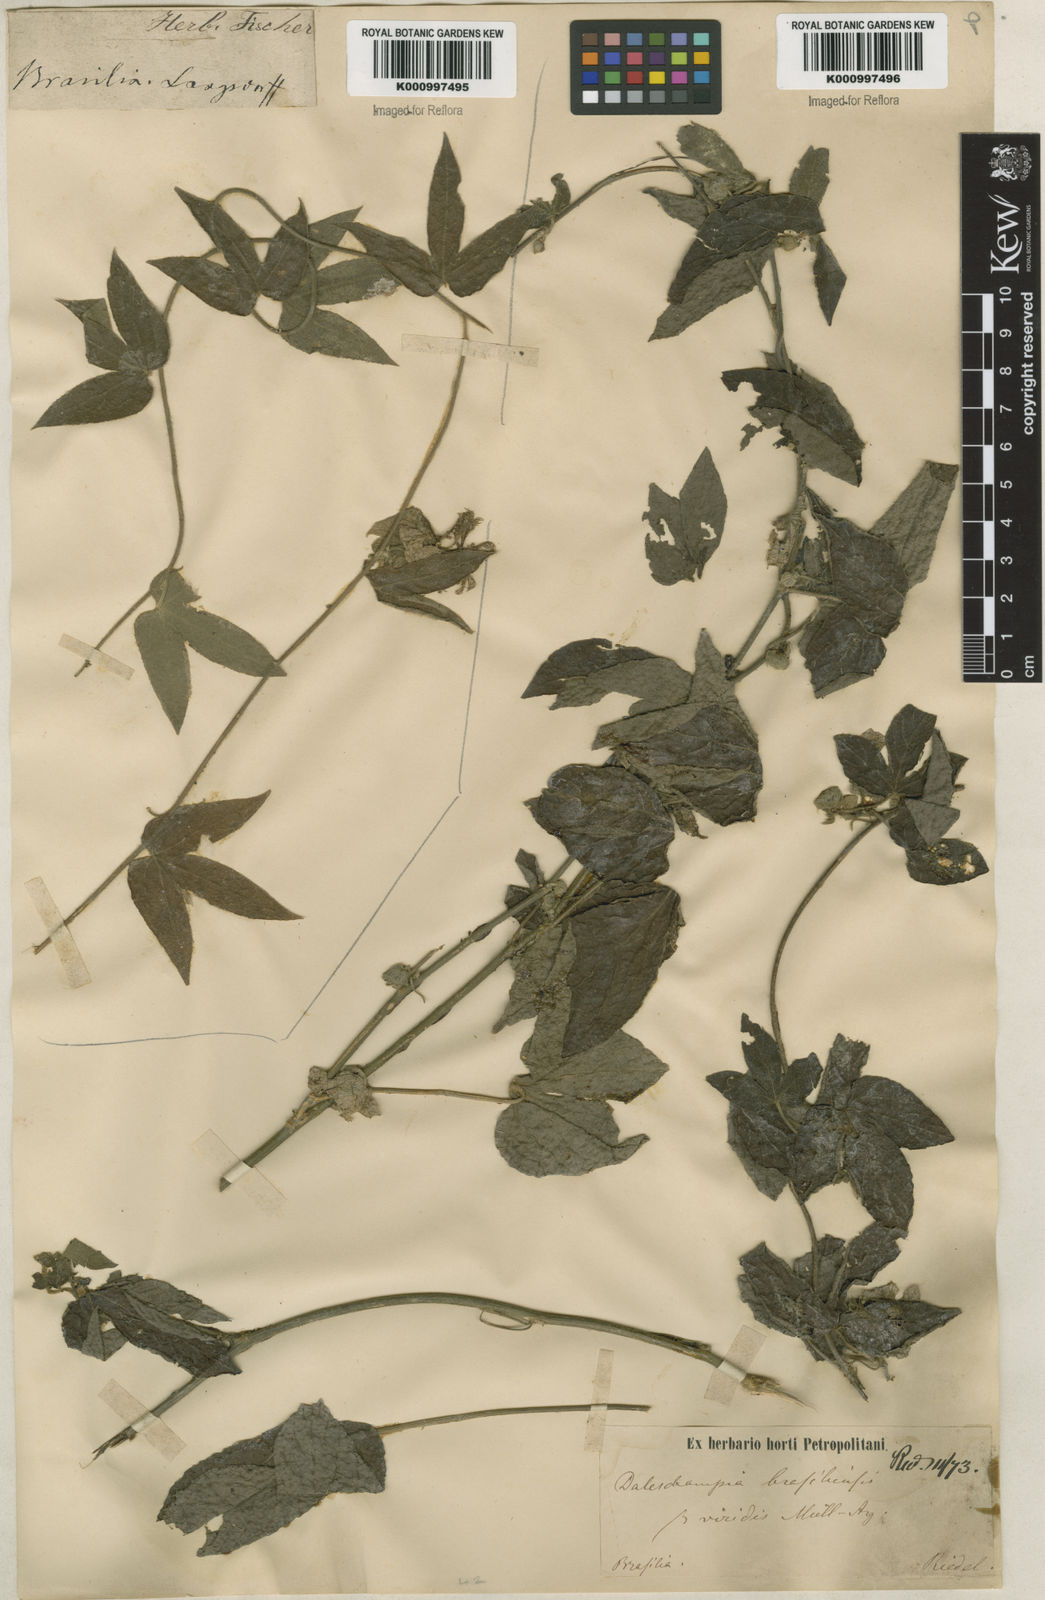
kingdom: Plantae
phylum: Tracheophyta
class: Magnoliopsida
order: Malpighiales
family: Euphorbiaceae
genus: Dalechampia
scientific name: Dalechampia brasiliensis
